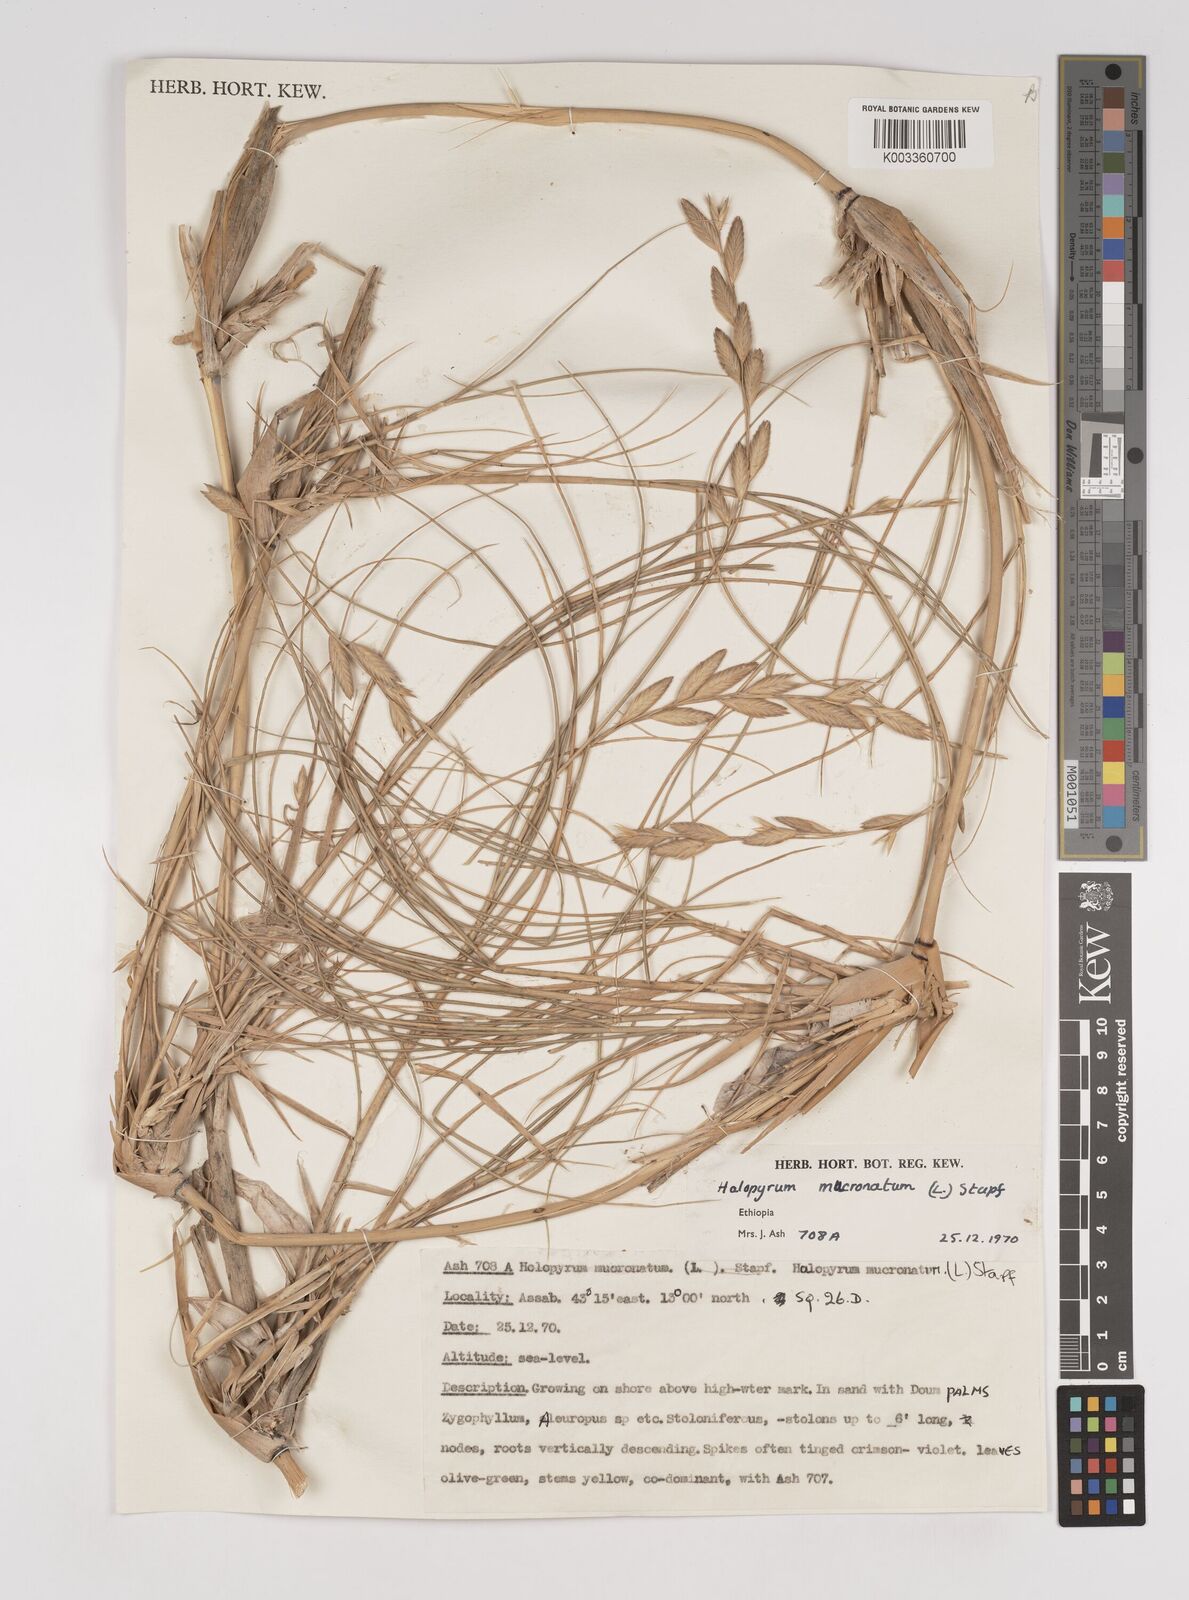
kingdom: Plantae
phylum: Tracheophyta
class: Liliopsida
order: Poales
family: Poaceae
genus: Halopyrum
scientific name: Halopyrum mucronatum
